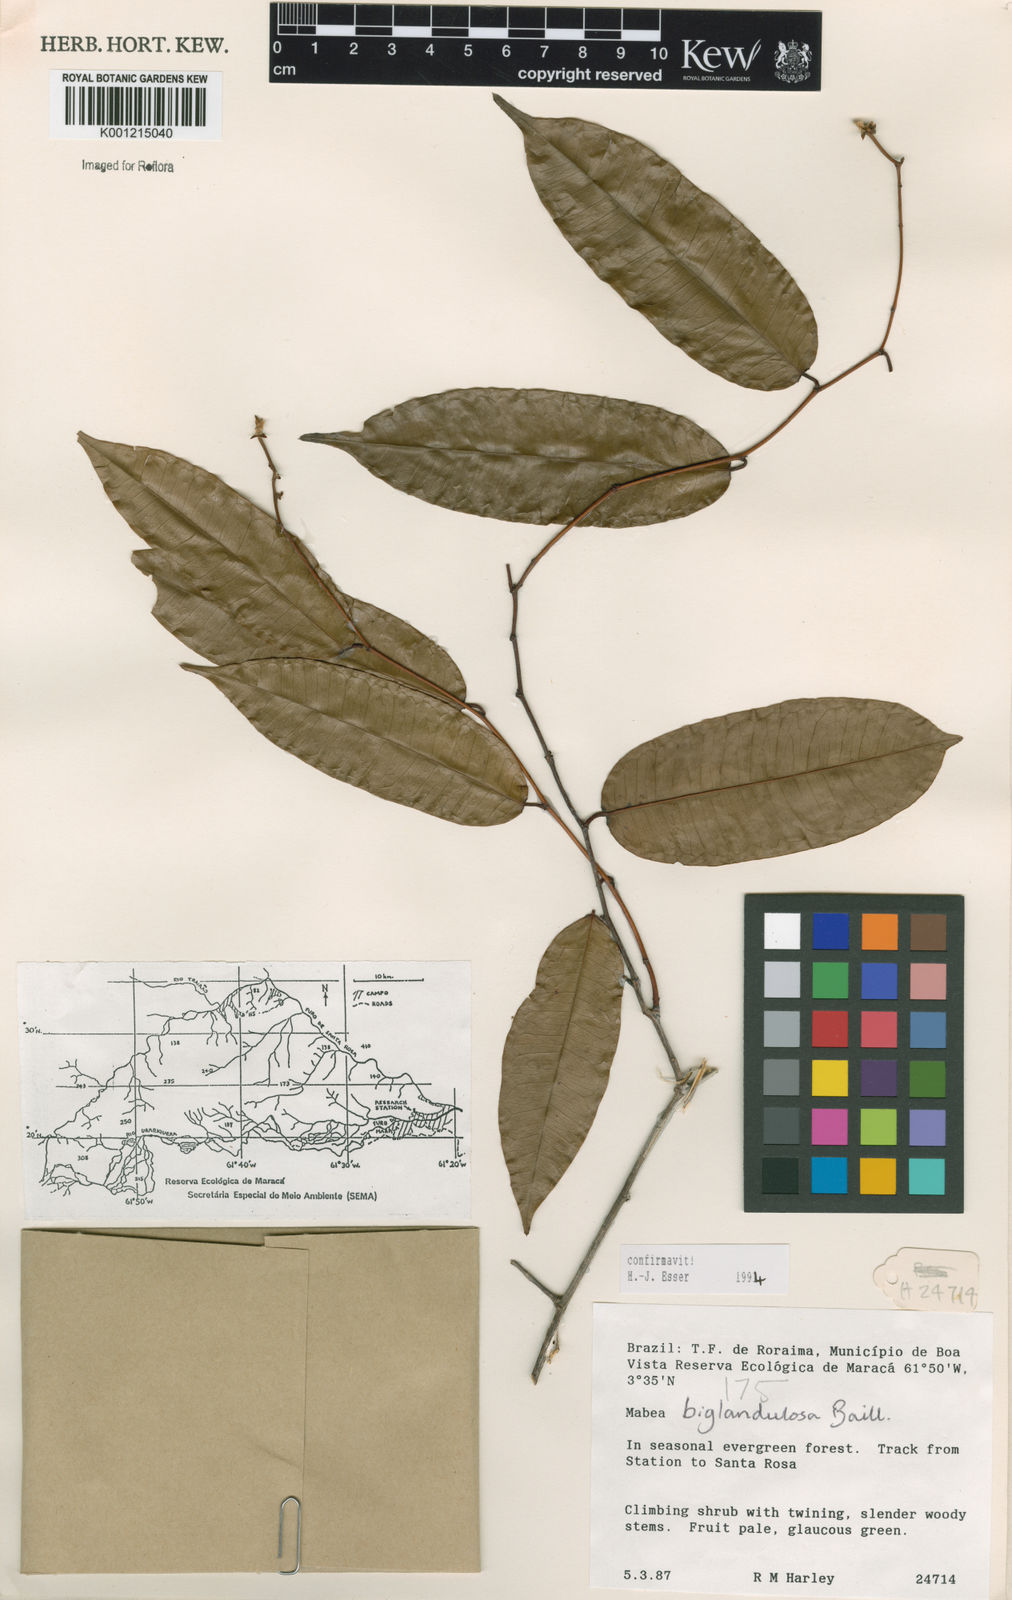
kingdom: Plantae
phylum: Tracheophyta
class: Magnoliopsida
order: Malpighiales
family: Euphorbiaceae
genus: Mabea
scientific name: Mabea
